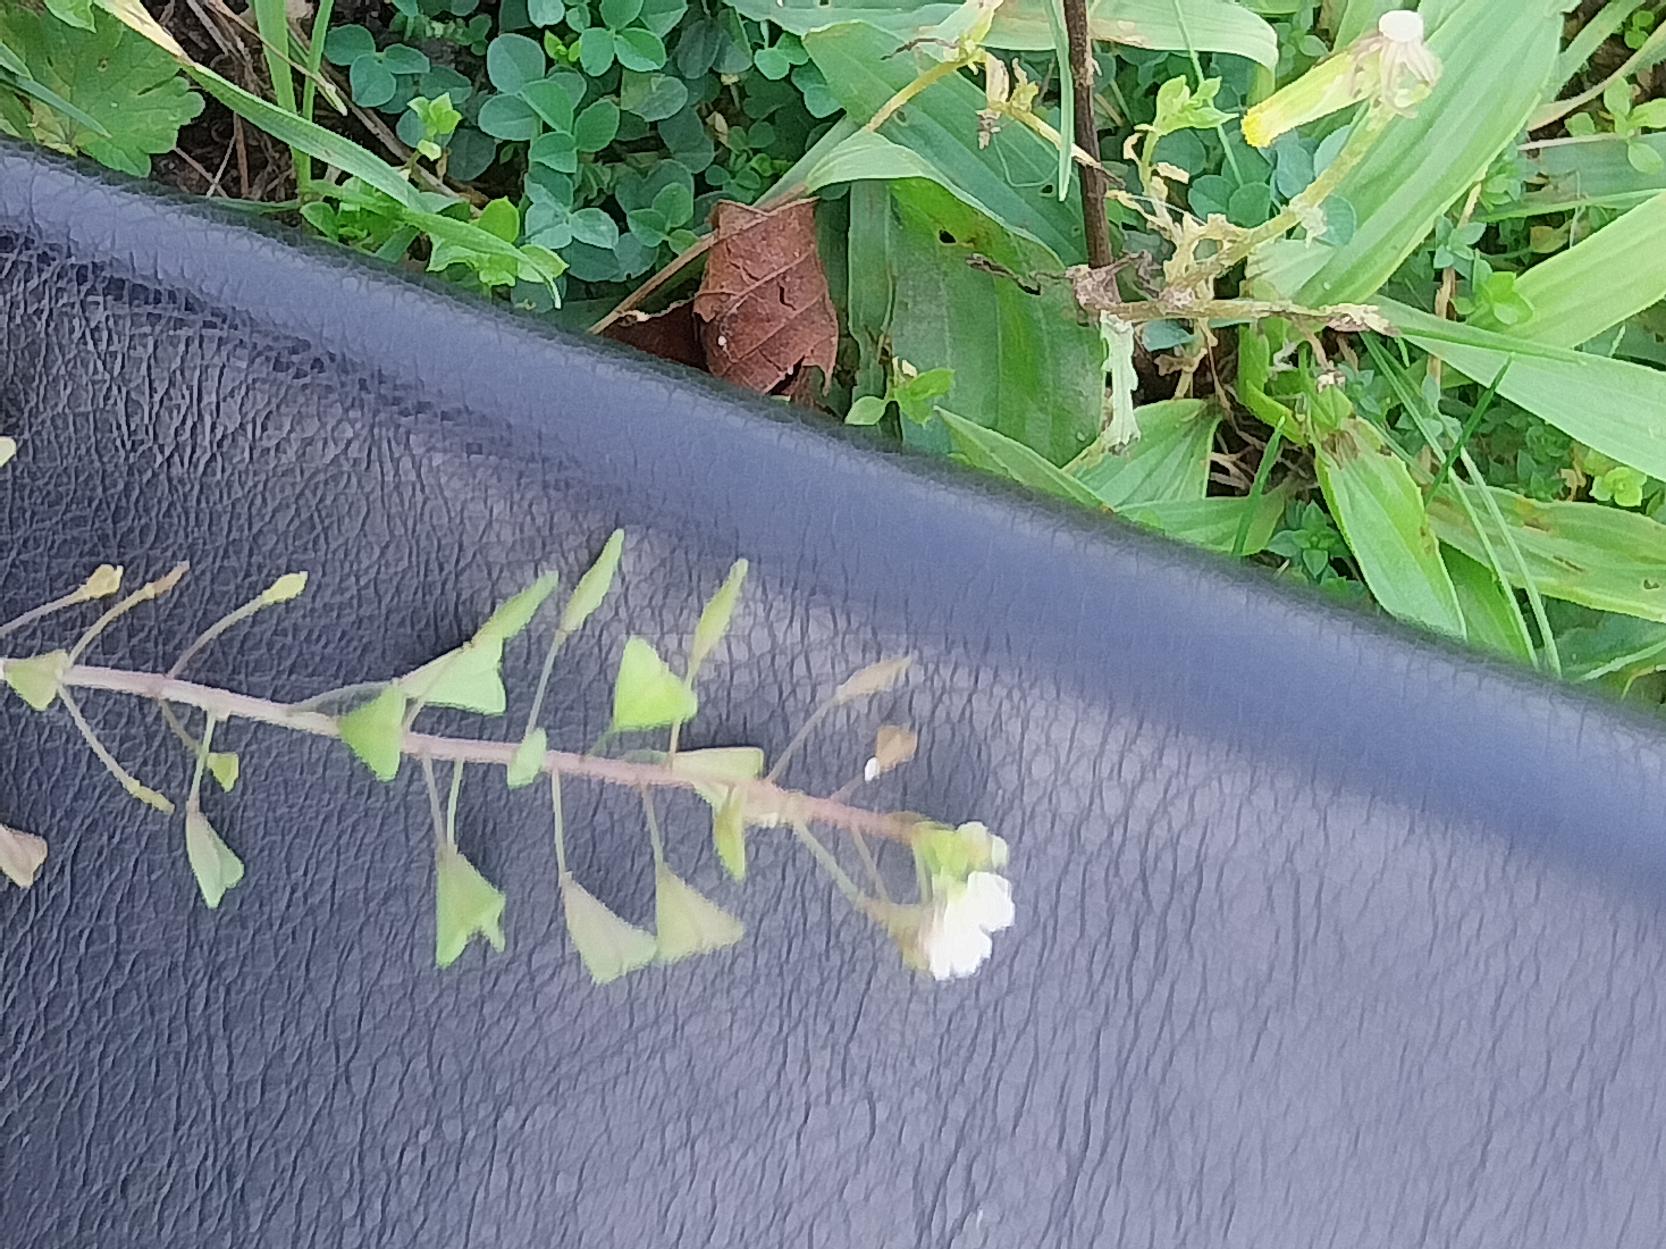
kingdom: Plantae
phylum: Tracheophyta
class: Magnoliopsida
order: Brassicales
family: Brassicaceae
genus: Capsella
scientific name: Capsella bursa-pastoris
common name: Hyrdetaske
